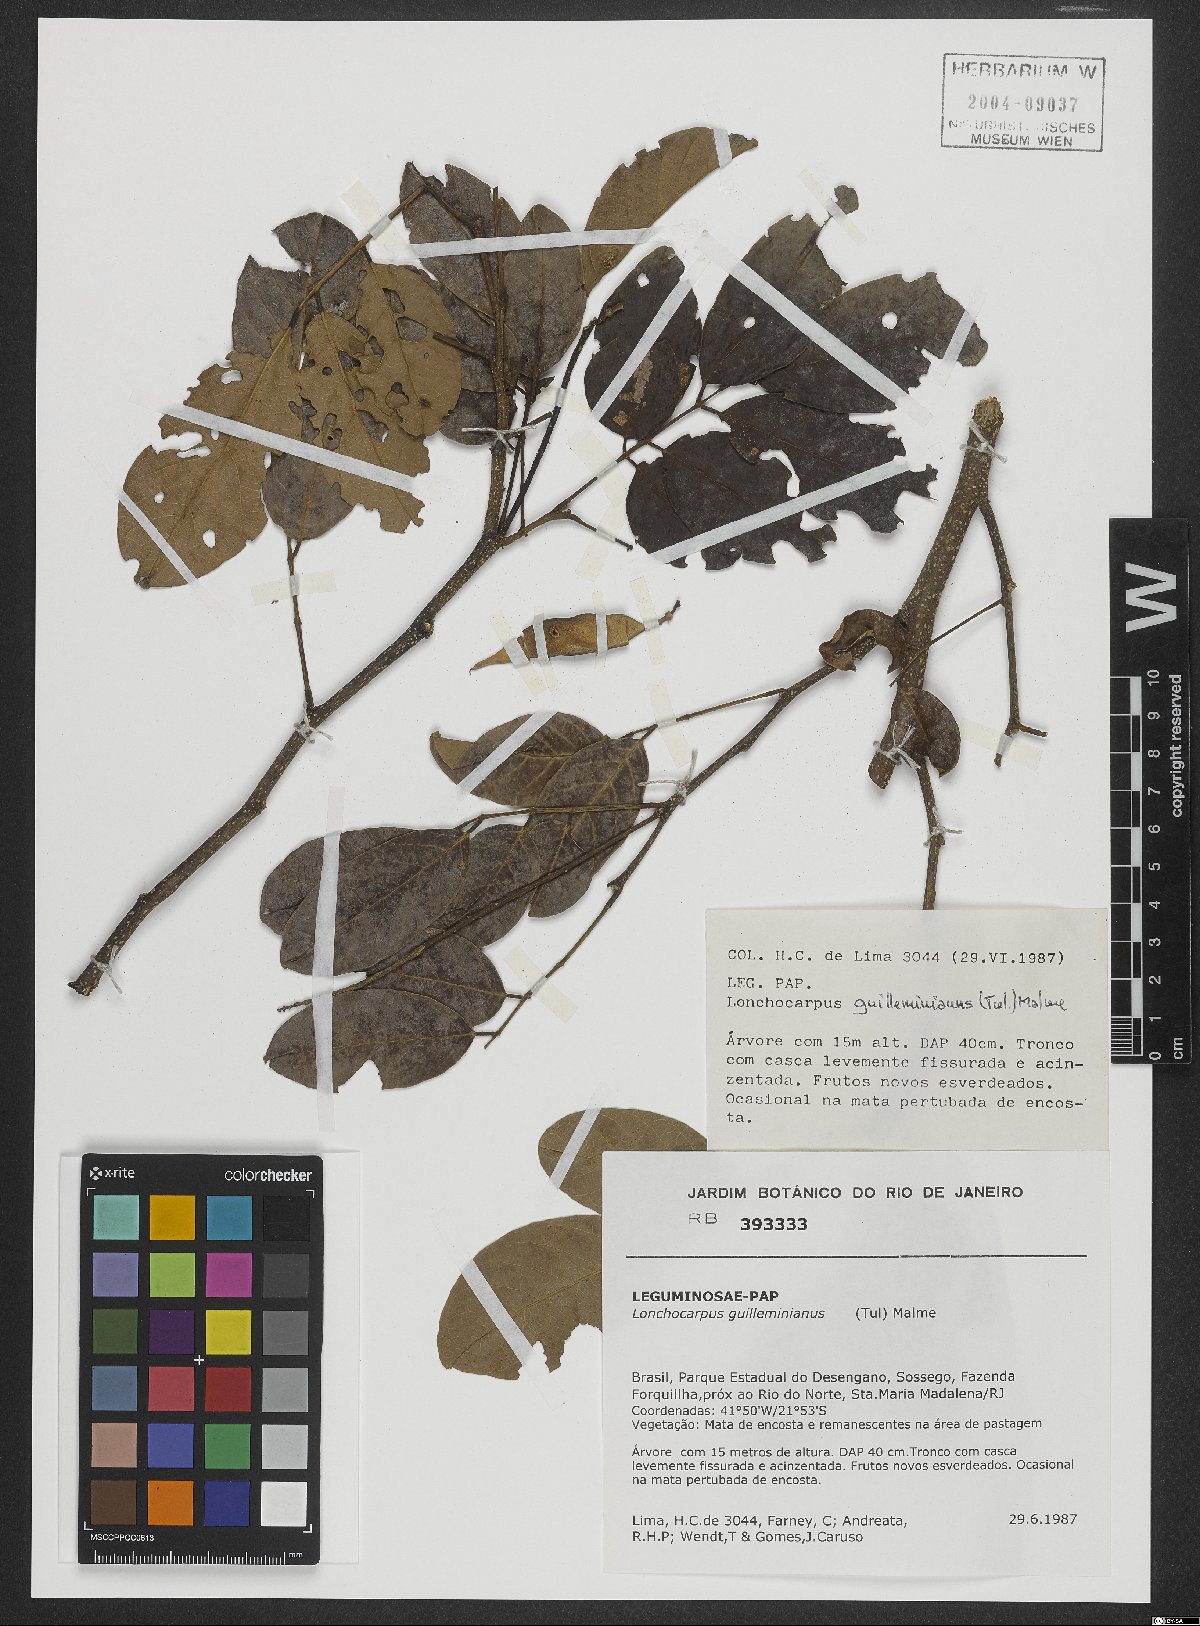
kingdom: Plantae
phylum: Tracheophyta
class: Magnoliopsida
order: Fabales
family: Fabaceae
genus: Lonchocarpus
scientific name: Lonchocarpus cultratus
